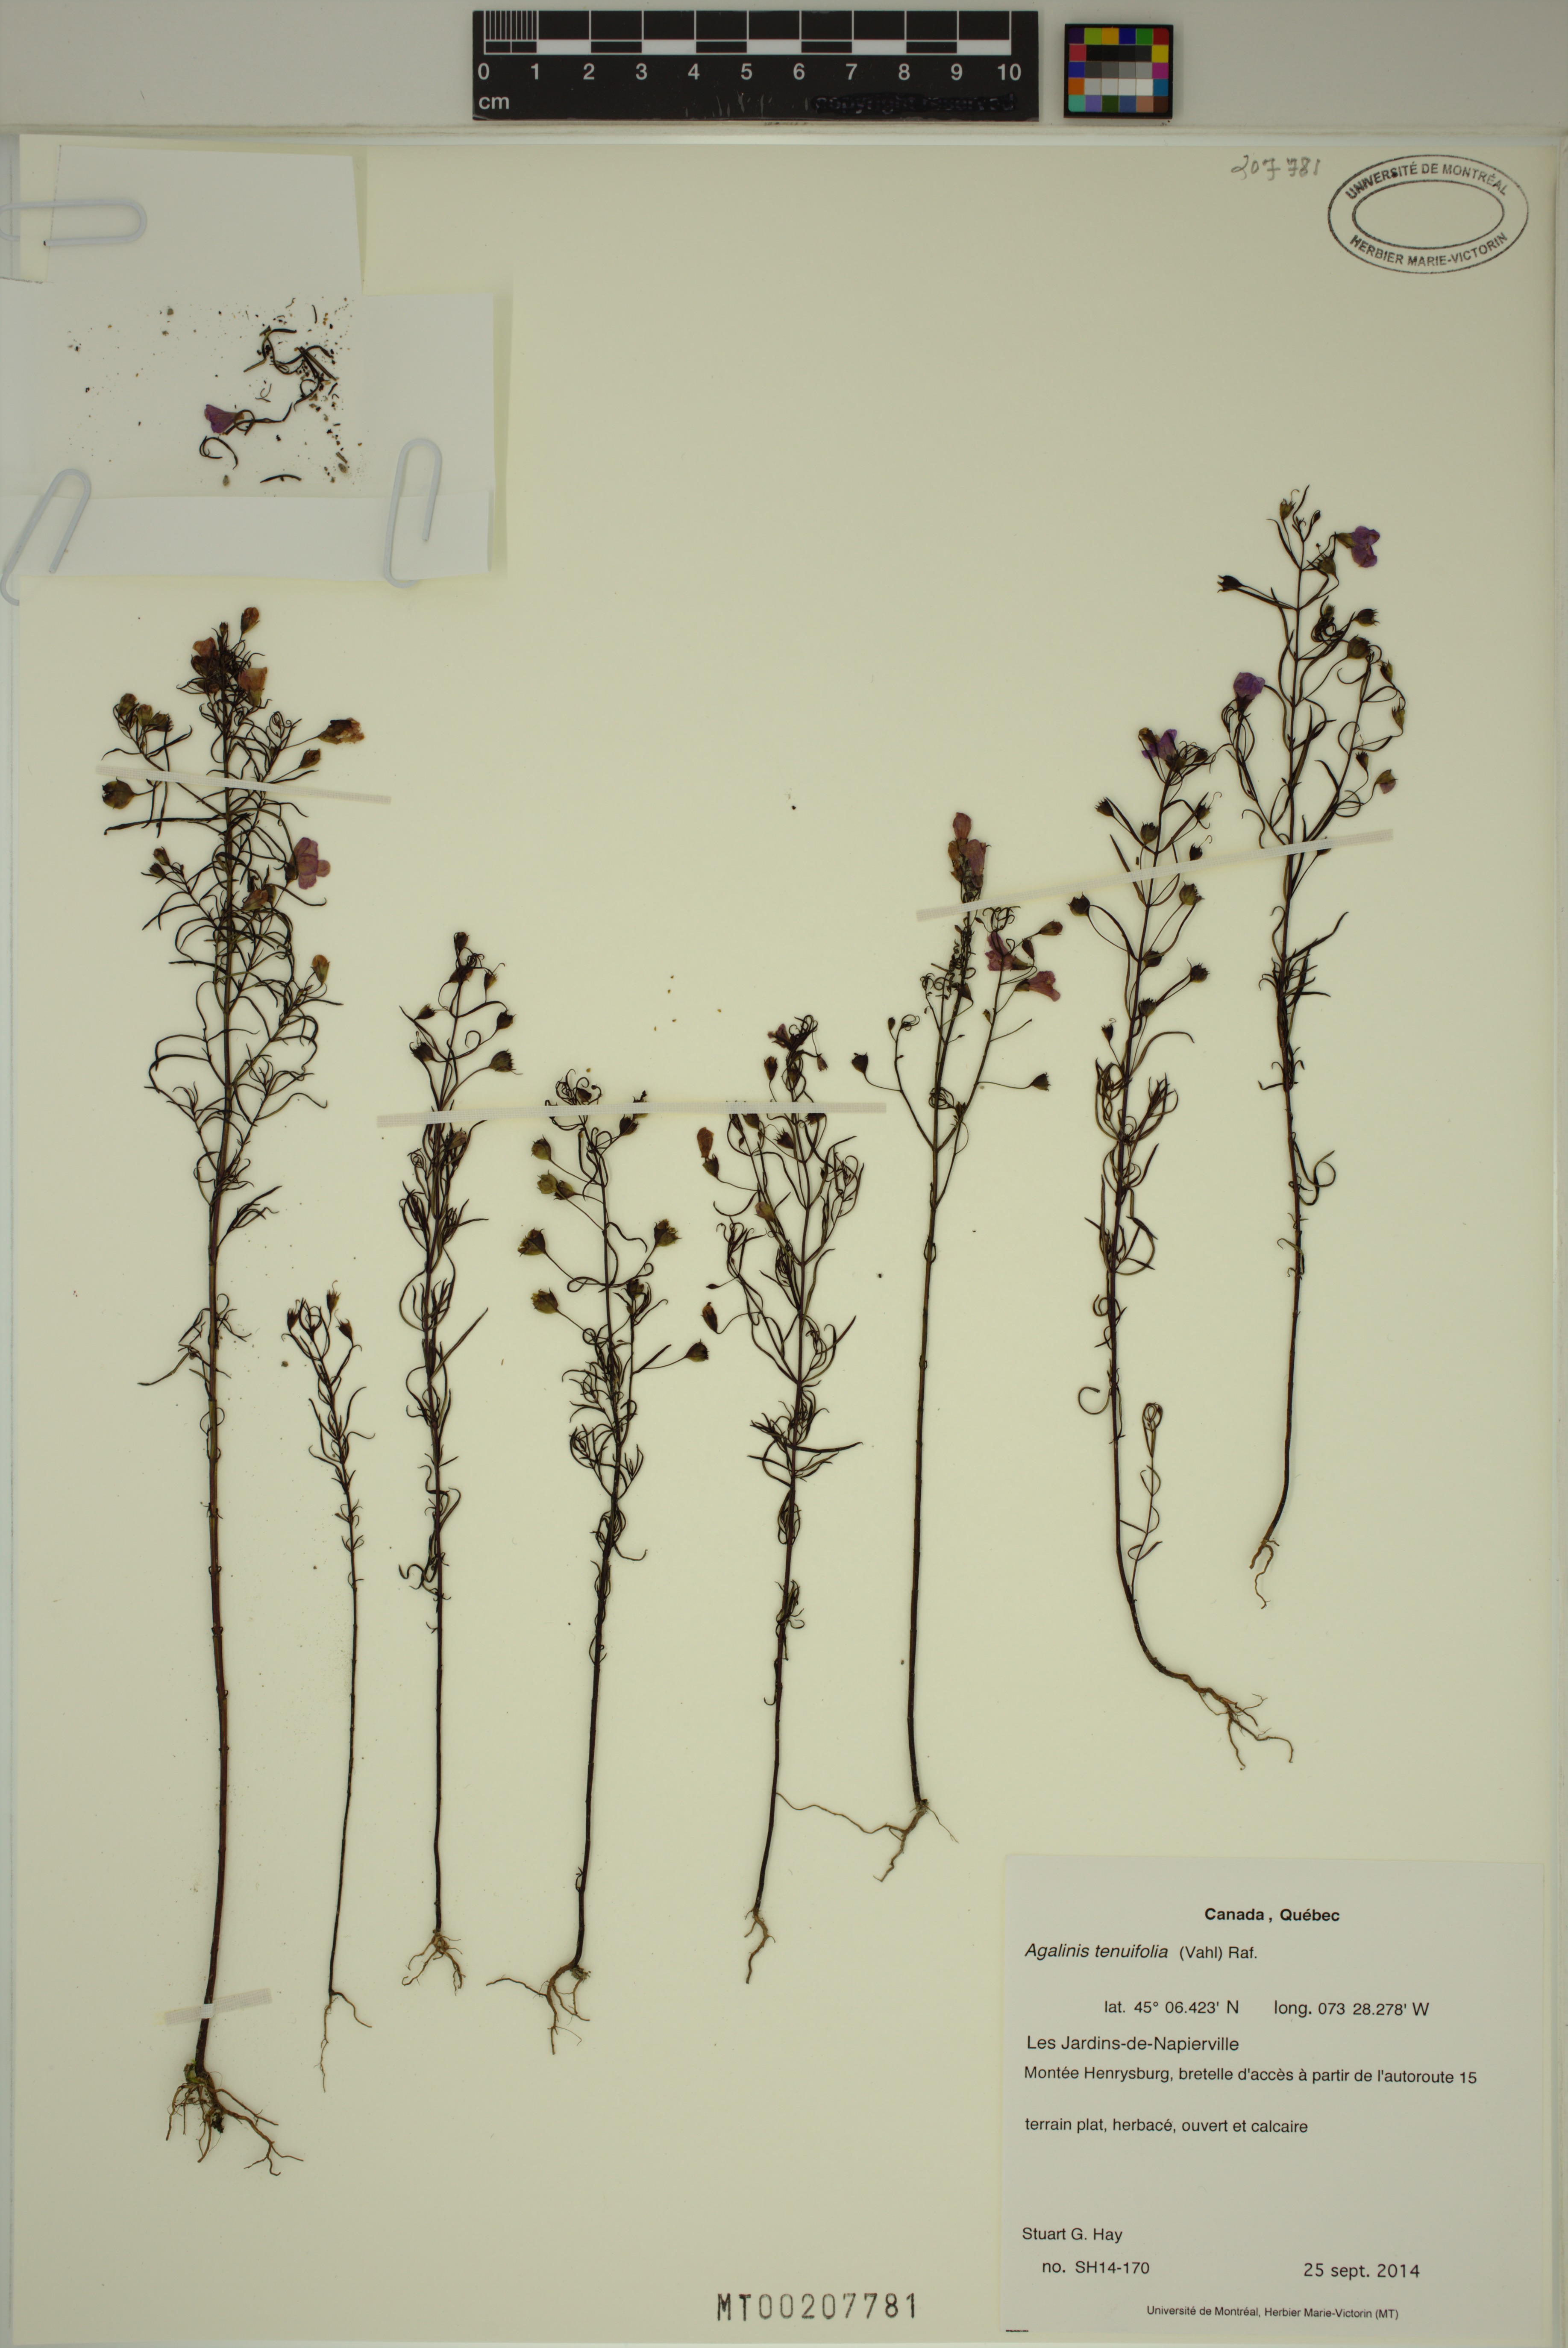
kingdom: Plantae
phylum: Tracheophyta
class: Magnoliopsida
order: Lamiales
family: Orobanchaceae
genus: Agalinis
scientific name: Agalinis tenuifolia
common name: Slender agalinis
